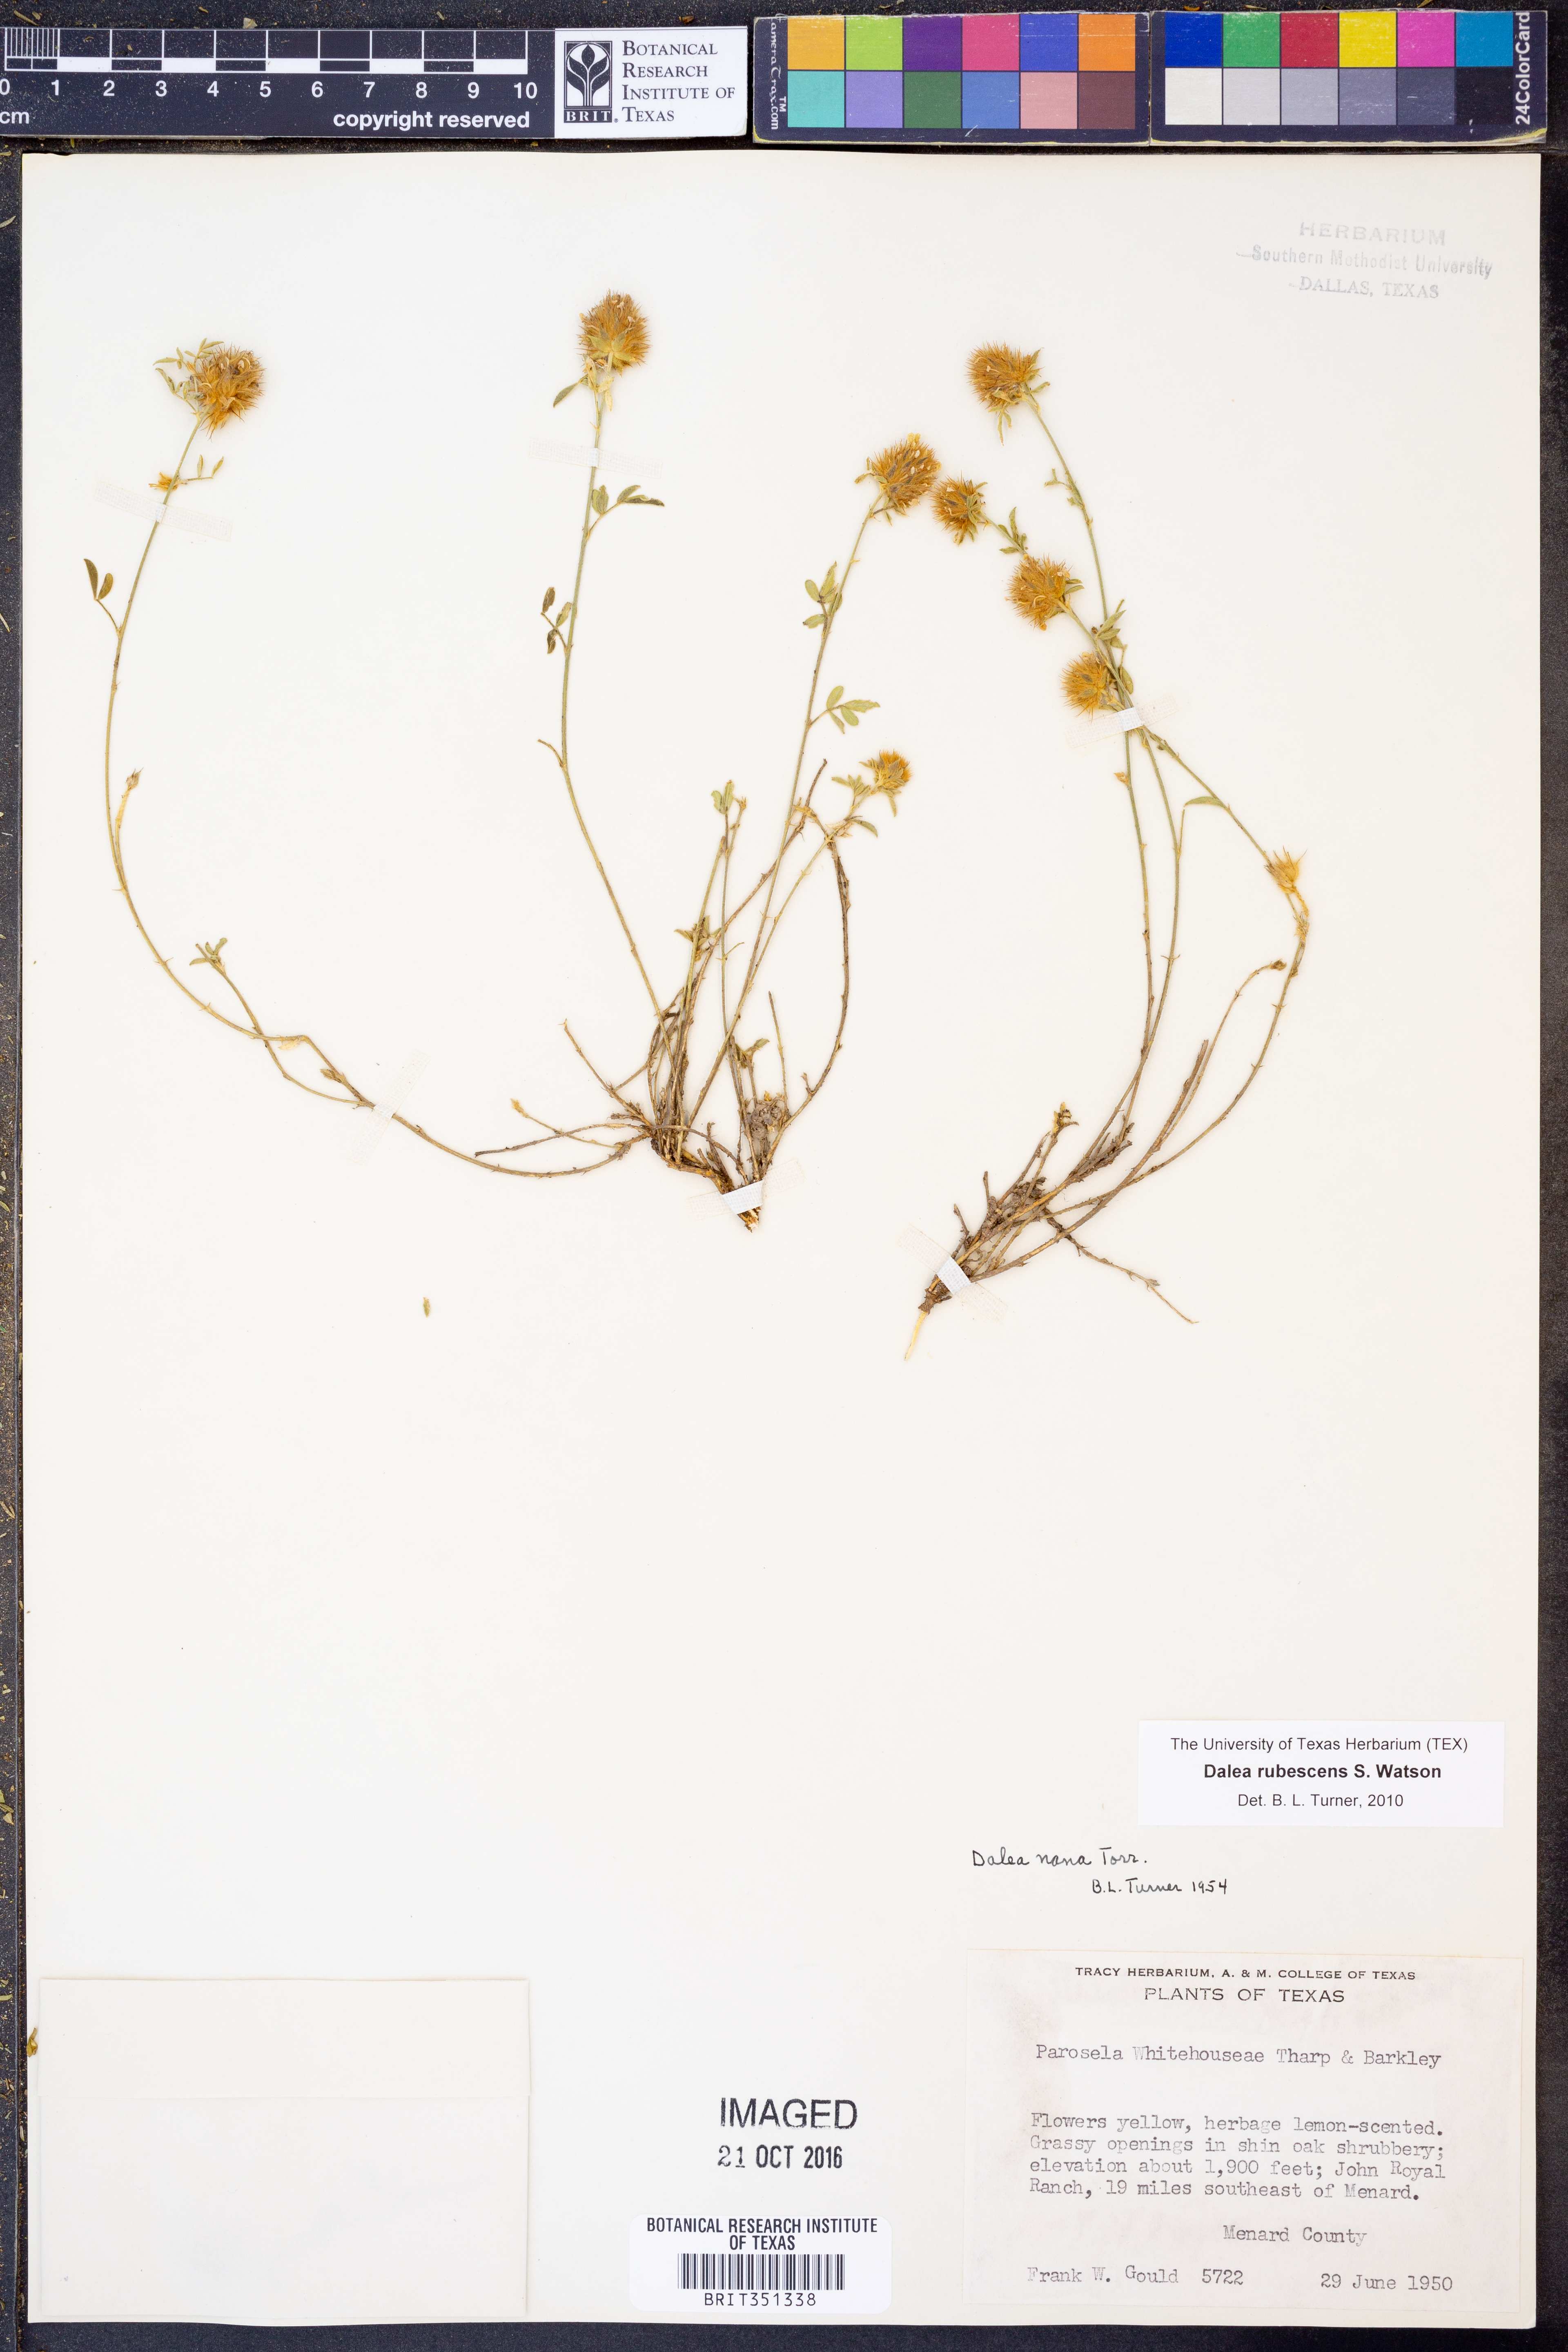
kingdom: Plantae
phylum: Tracheophyta
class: Magnoliopsida
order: Fabales
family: Fabaceae
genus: Dalea
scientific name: Dalea rubescens
